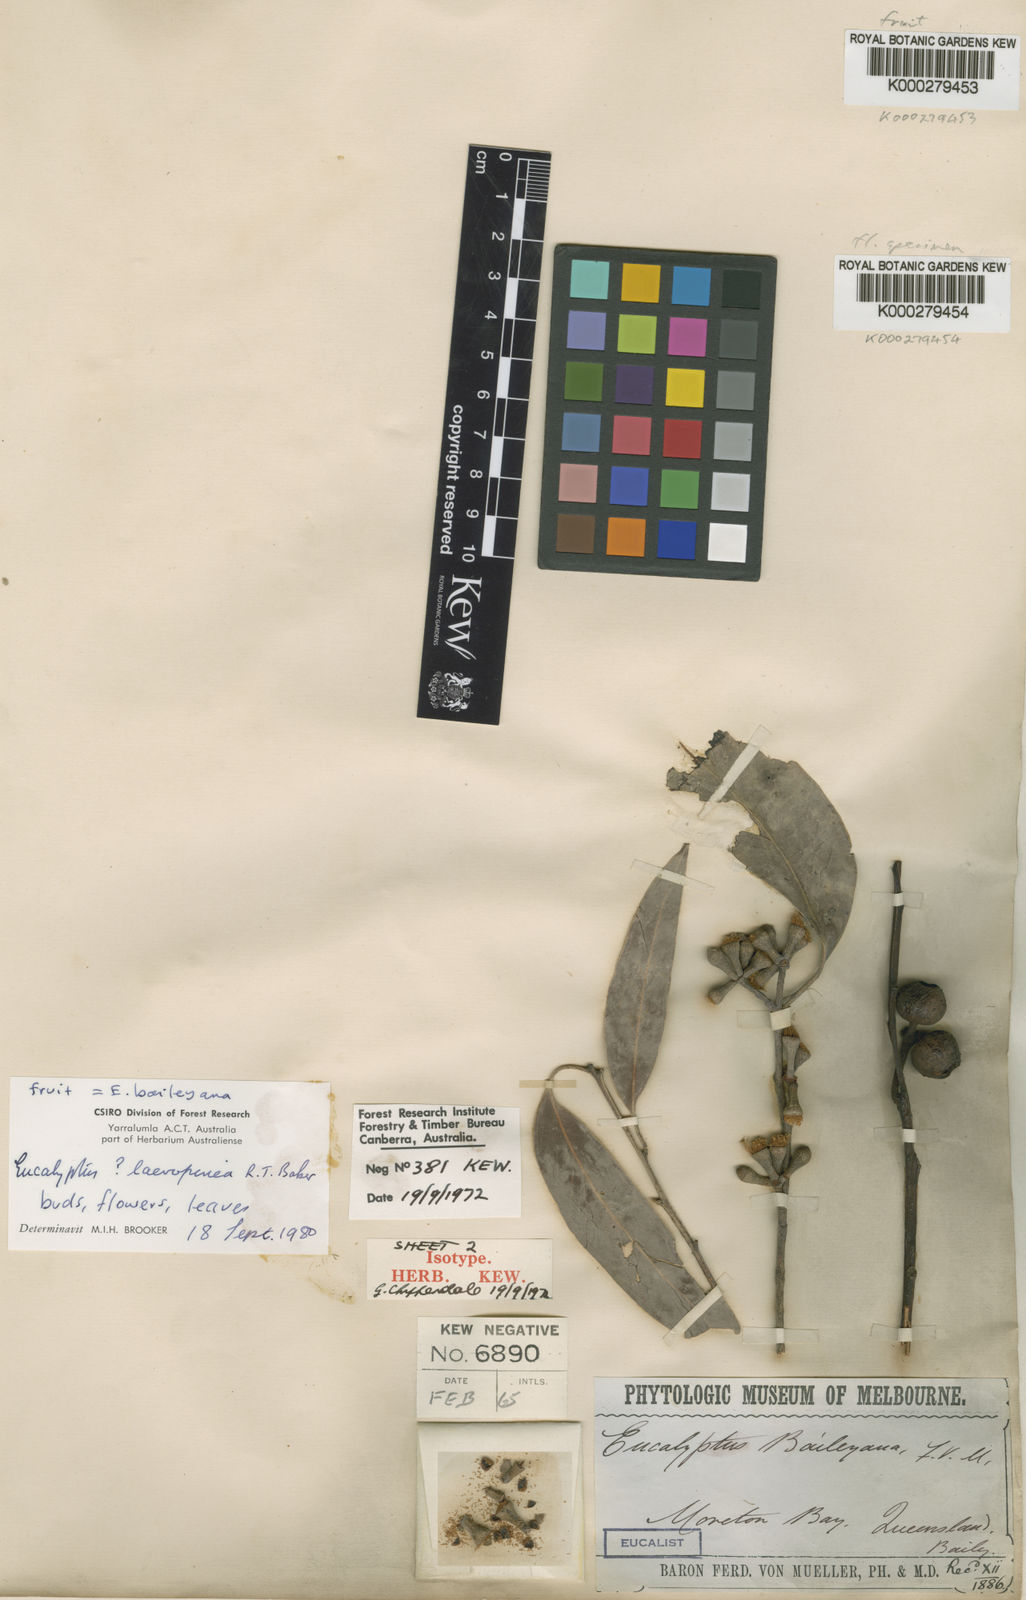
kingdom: Plantae
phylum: Tracheophyta
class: Magnoliopsida
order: Myrtales
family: Myrtaceae
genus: Eucalyptus
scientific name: Eucalyptus baileyana
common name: Bailey's-stringybark
